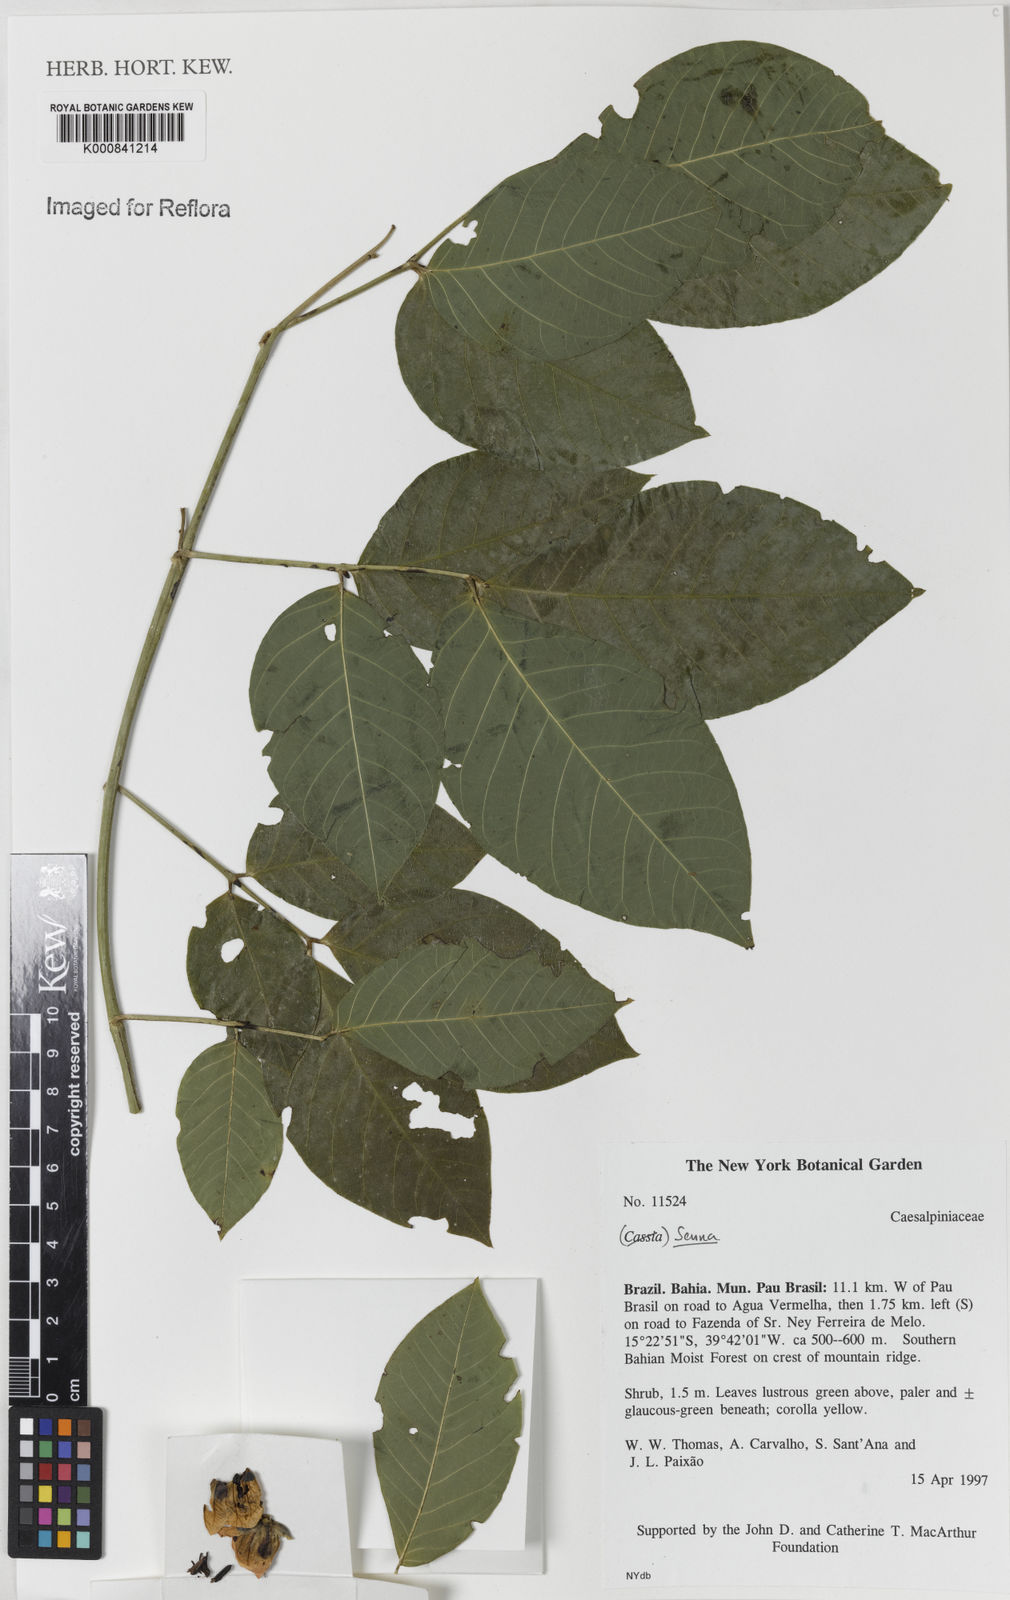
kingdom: Plantae
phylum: Tracheophyta
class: Magnoliopsida
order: Fabales
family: Fabaceae
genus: Senna
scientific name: Senna affinis
